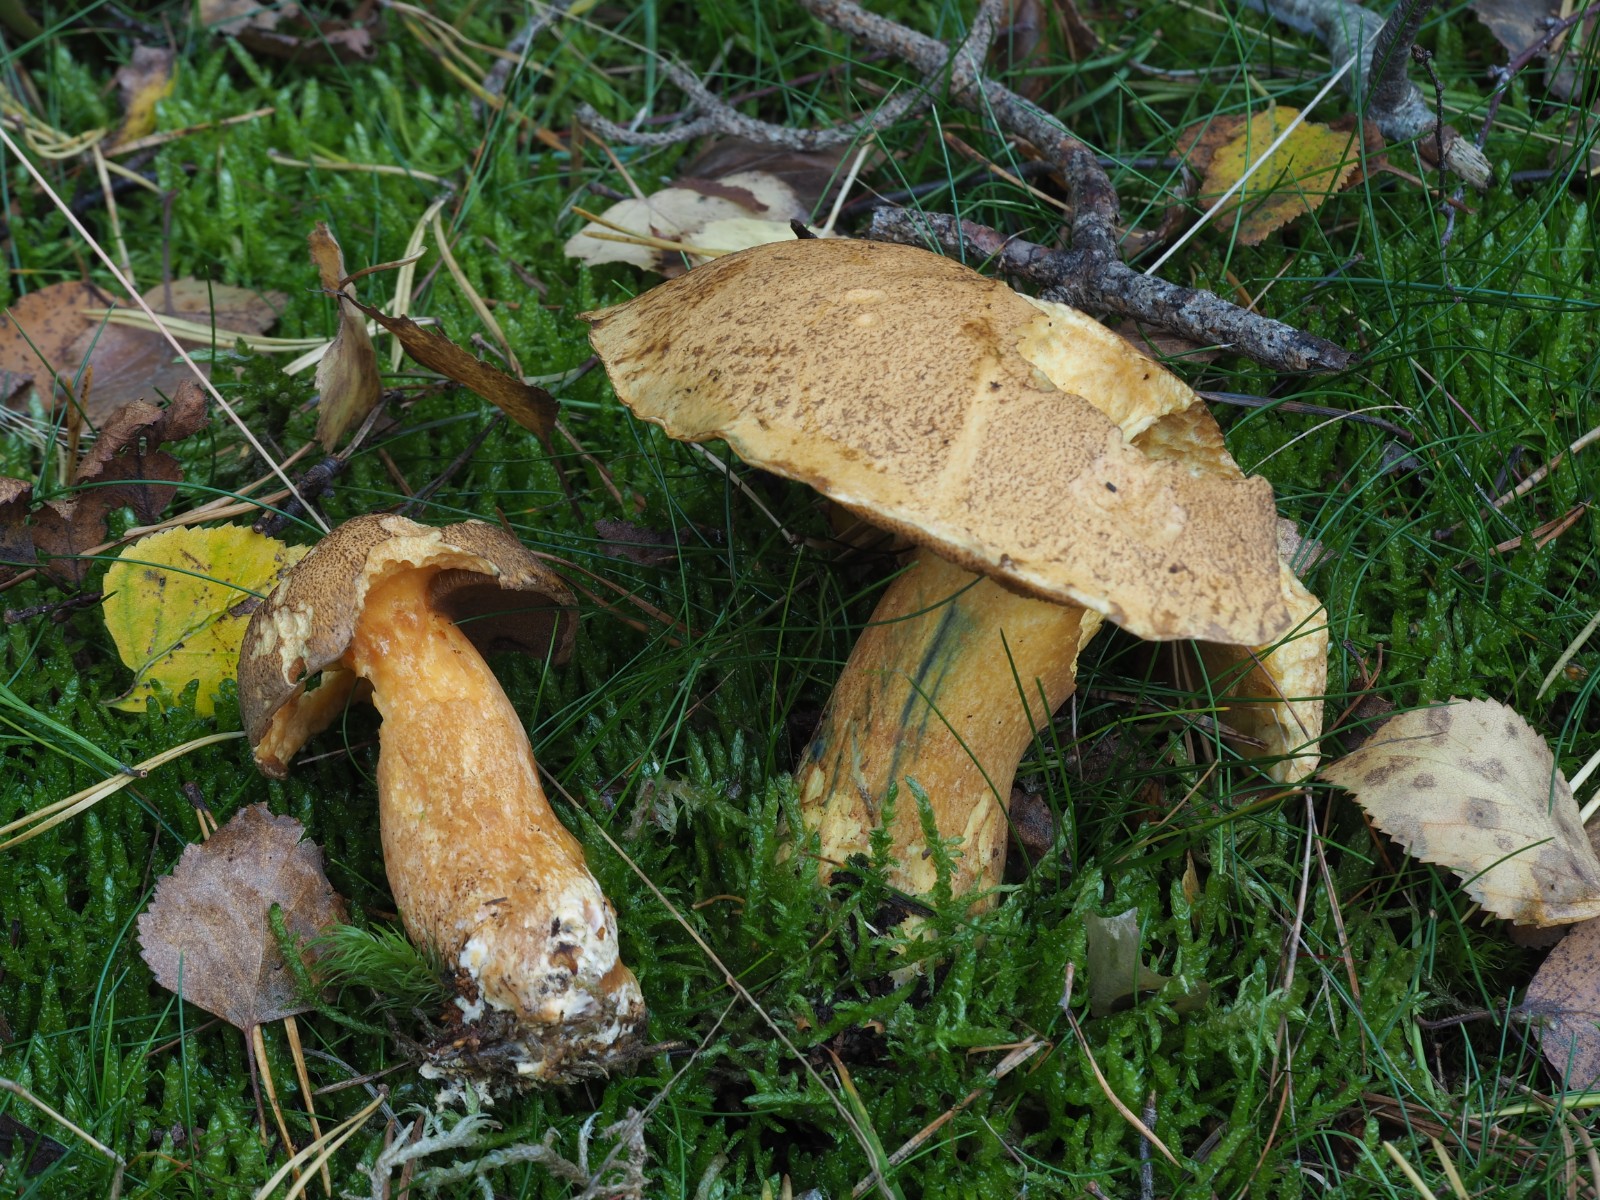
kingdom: Fungi
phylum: Basidiomycota
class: Agaricomycetes
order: Boletales
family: Suillaceae
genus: Suillus
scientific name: Suillus variegatus
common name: broget slimrørhat
